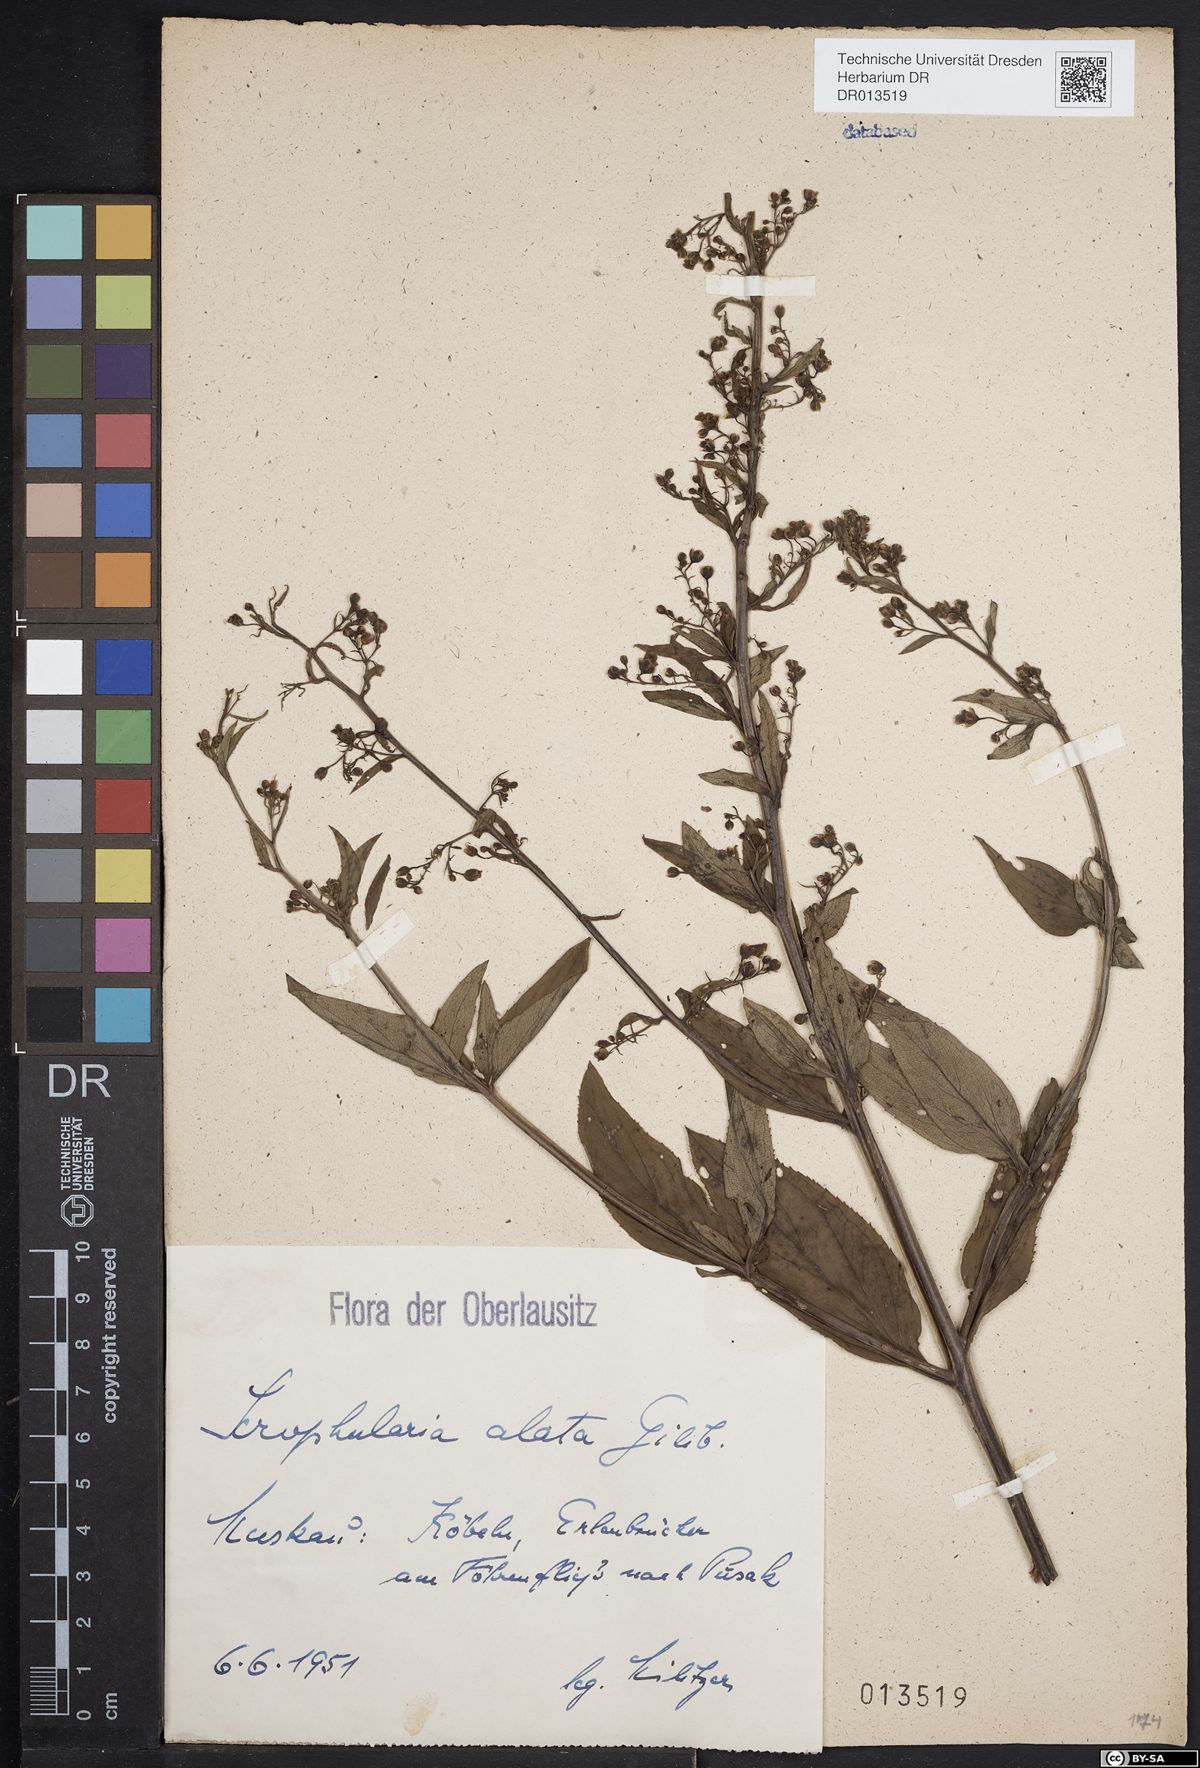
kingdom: Plantae
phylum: Tracheophyta
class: Magnoliopsida
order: Lamiales
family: Scrophulariaceae
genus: Scrophularia
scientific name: Scrophularia umbrosa
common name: Green figwort
